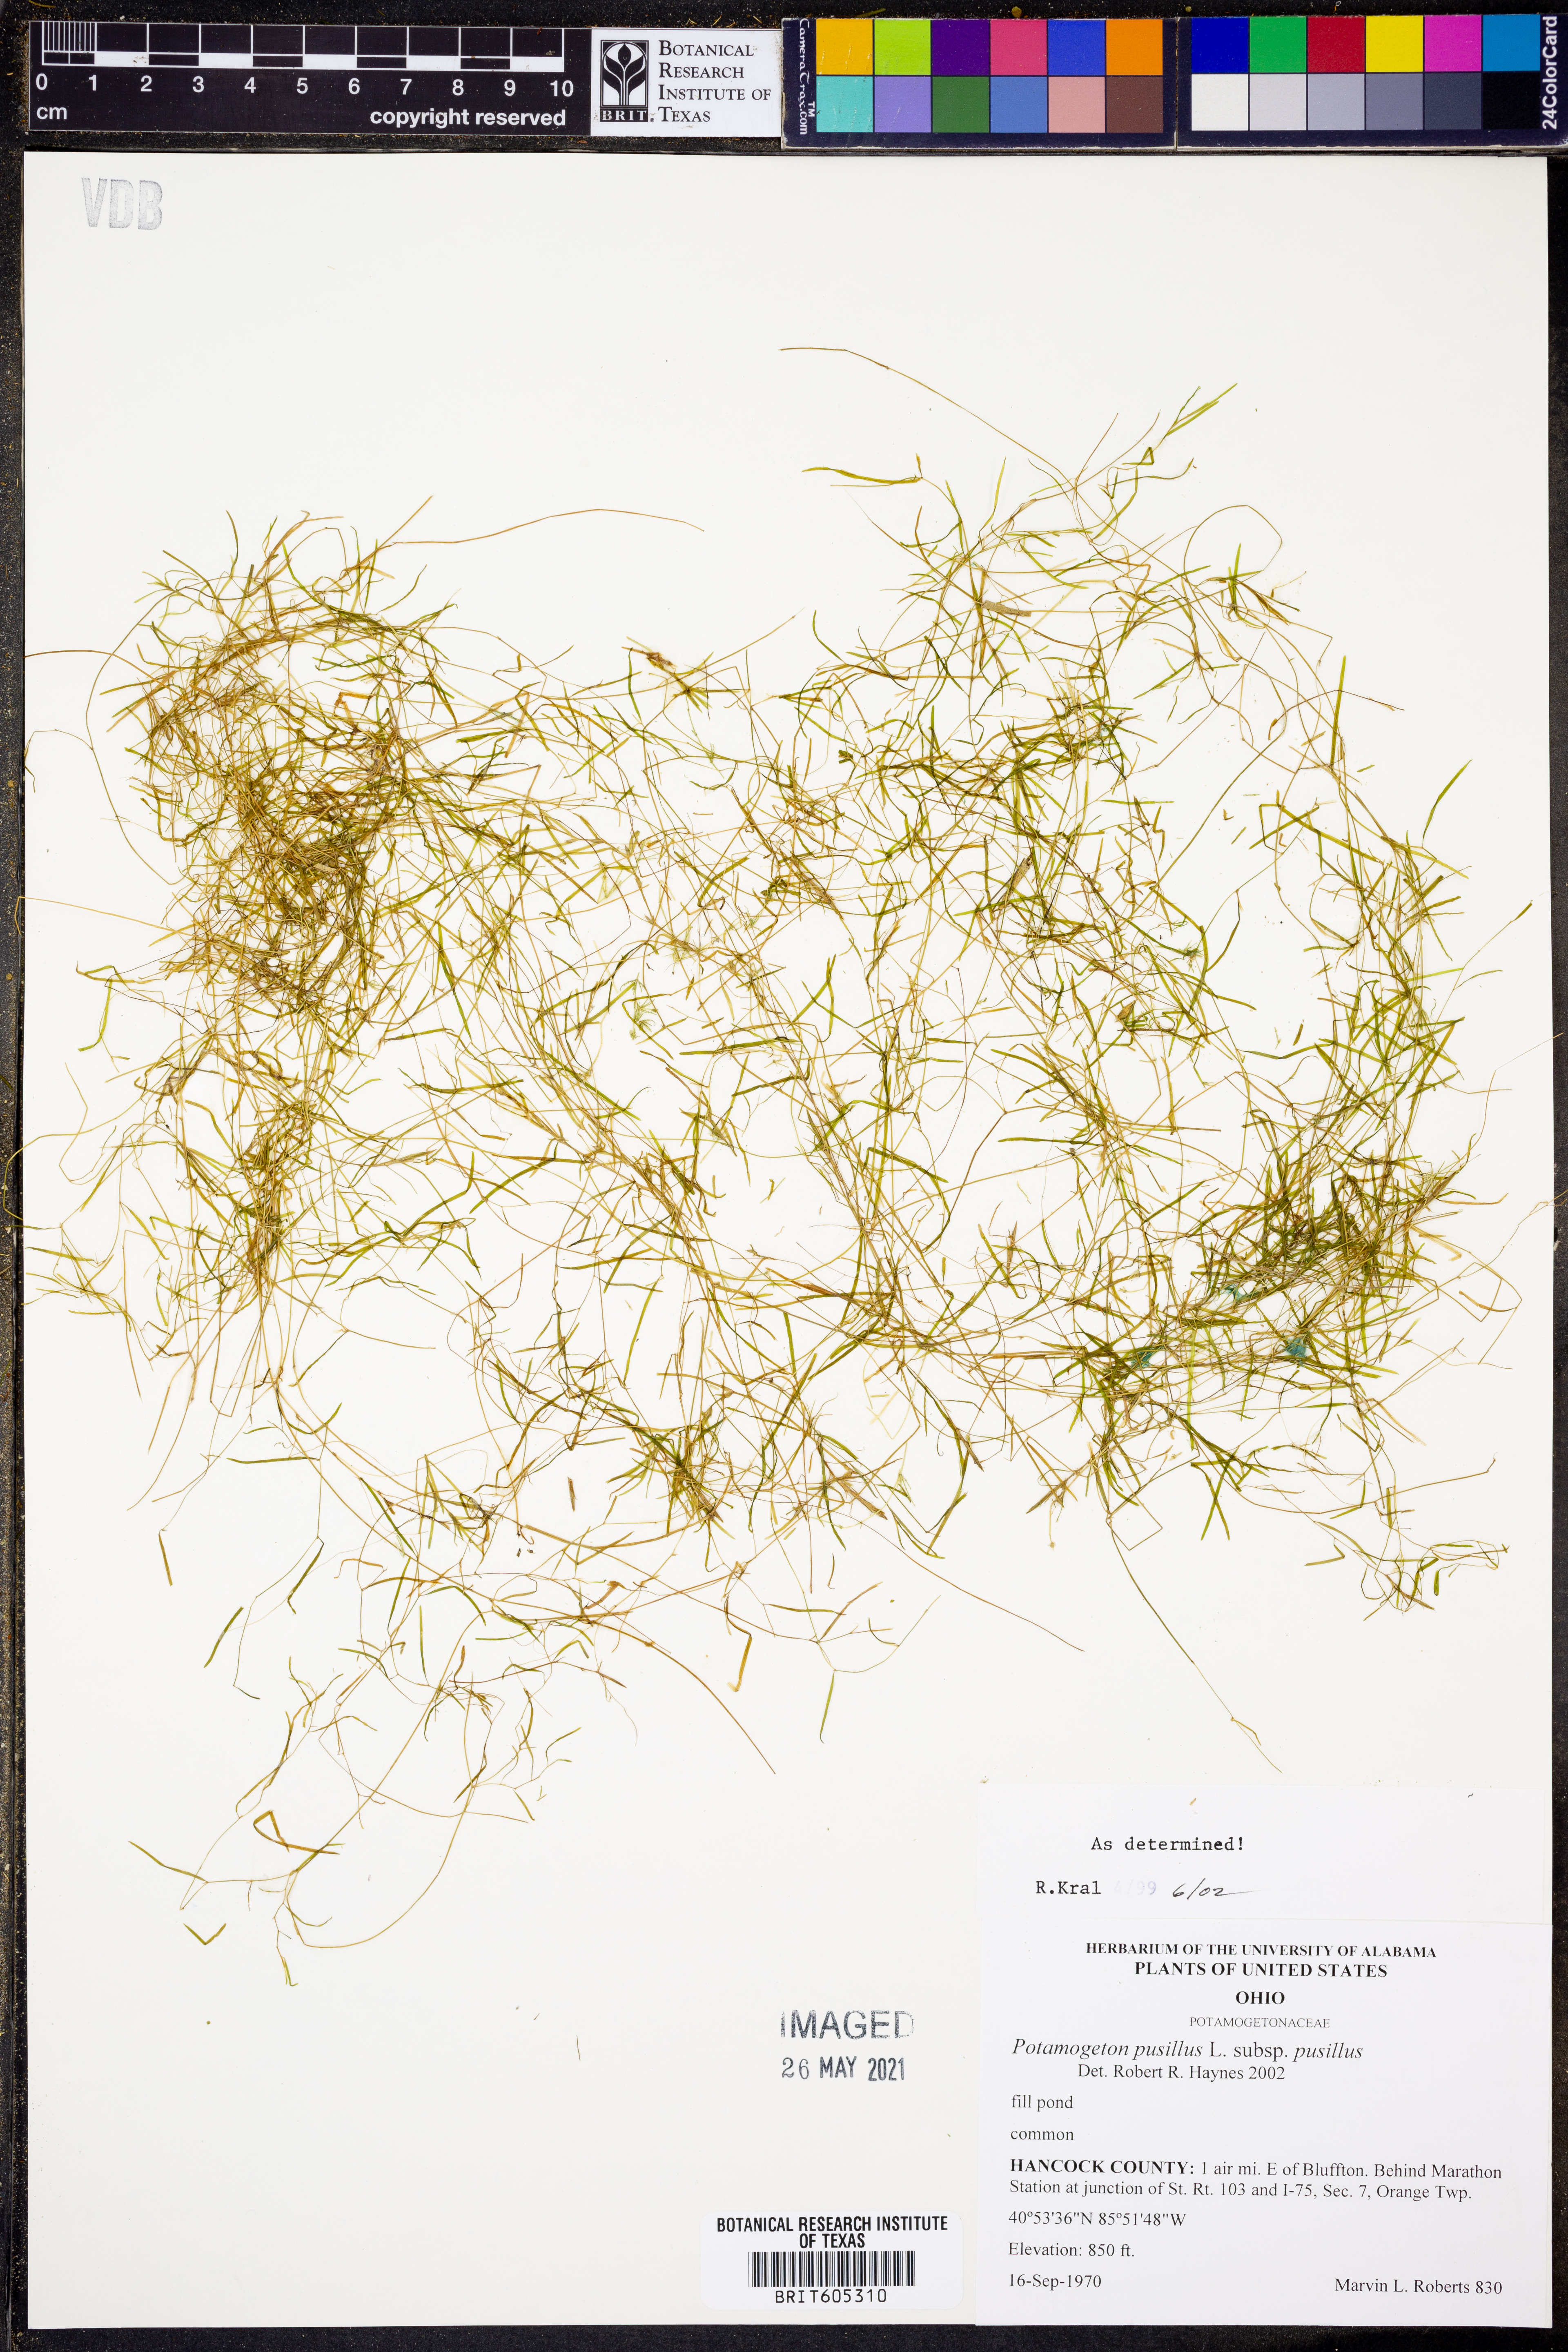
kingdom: Plantae
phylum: Tracheophyta
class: Liliopsida
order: Alismatales
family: Potamogetonaceae
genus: Potamogeton
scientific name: Potamogeton pusillus
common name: Lesser pondweed
